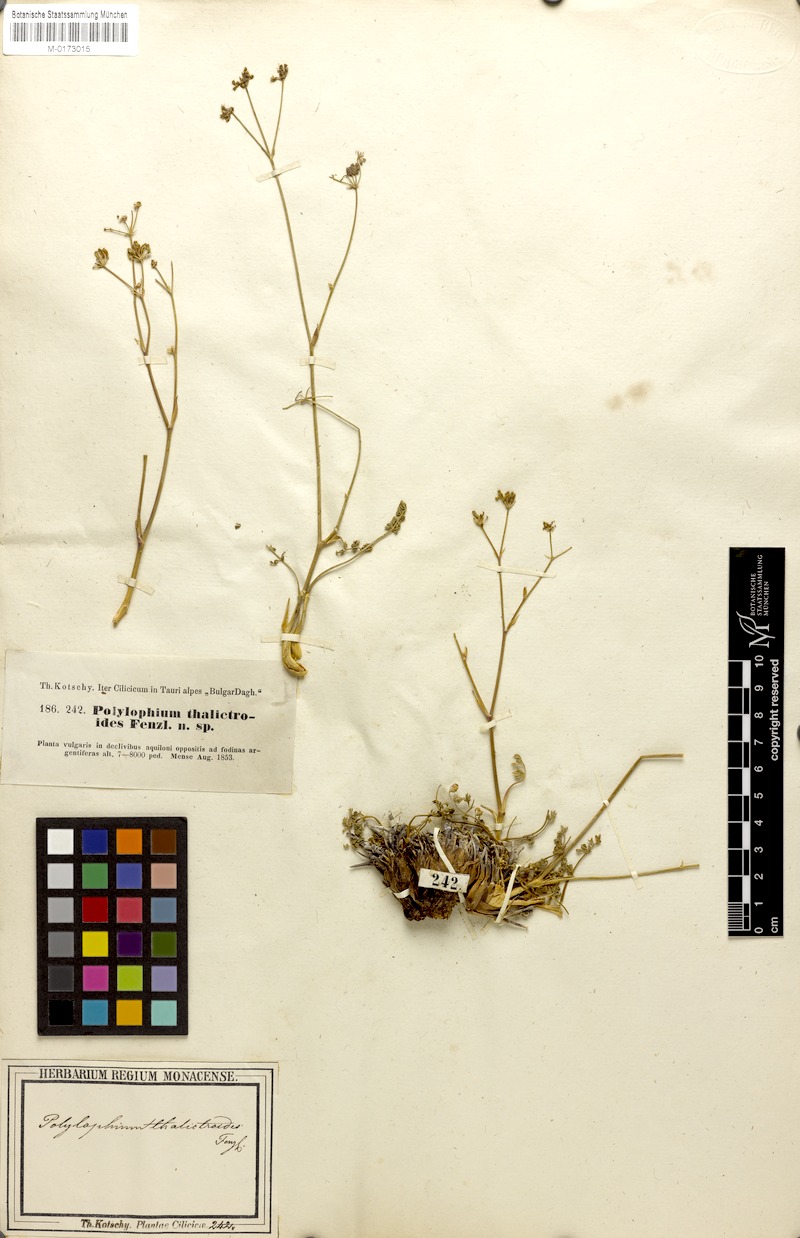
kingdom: Plantae
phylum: Tracheophyta
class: Magnoliopsida
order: Apiales
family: Apiaceae
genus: Ekimia
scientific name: Ekimia petrophila
